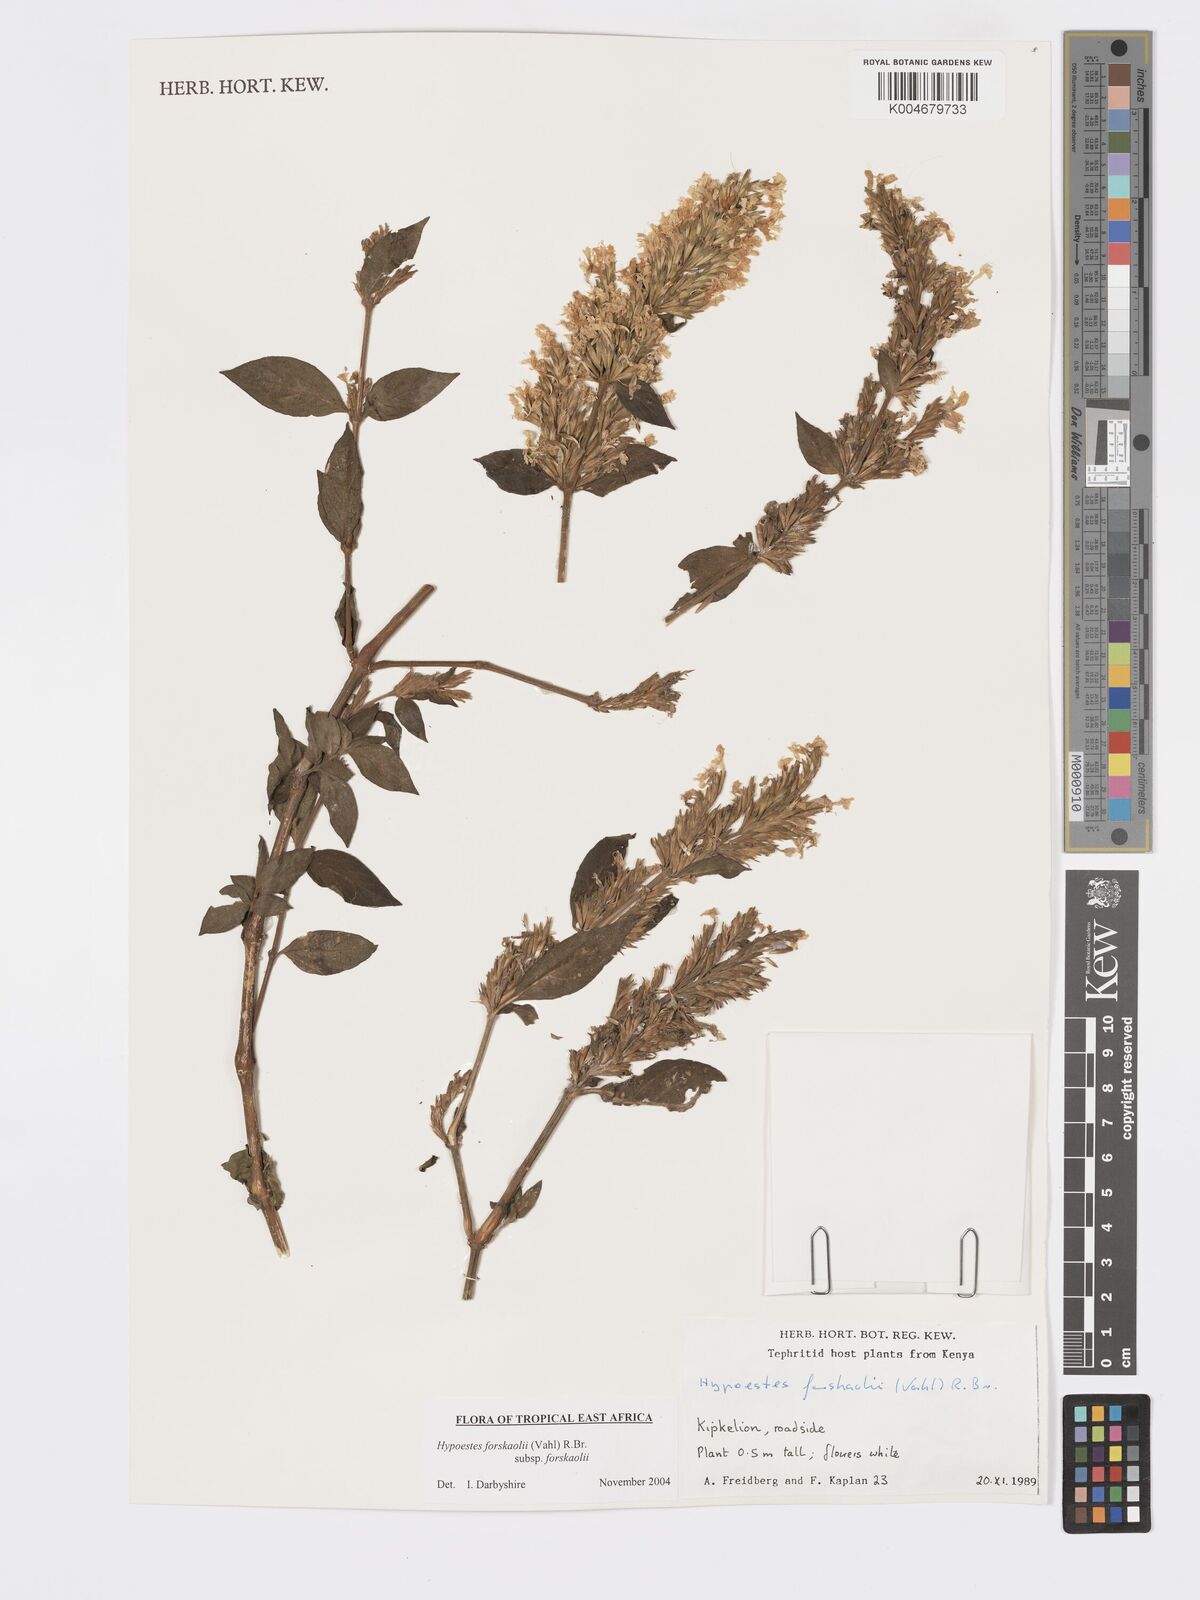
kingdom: Plantae
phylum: Tracheophyta
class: Magnoliopsida
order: Lamiales
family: Acanthaceae
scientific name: Acanthaceae
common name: Acanthaceae
